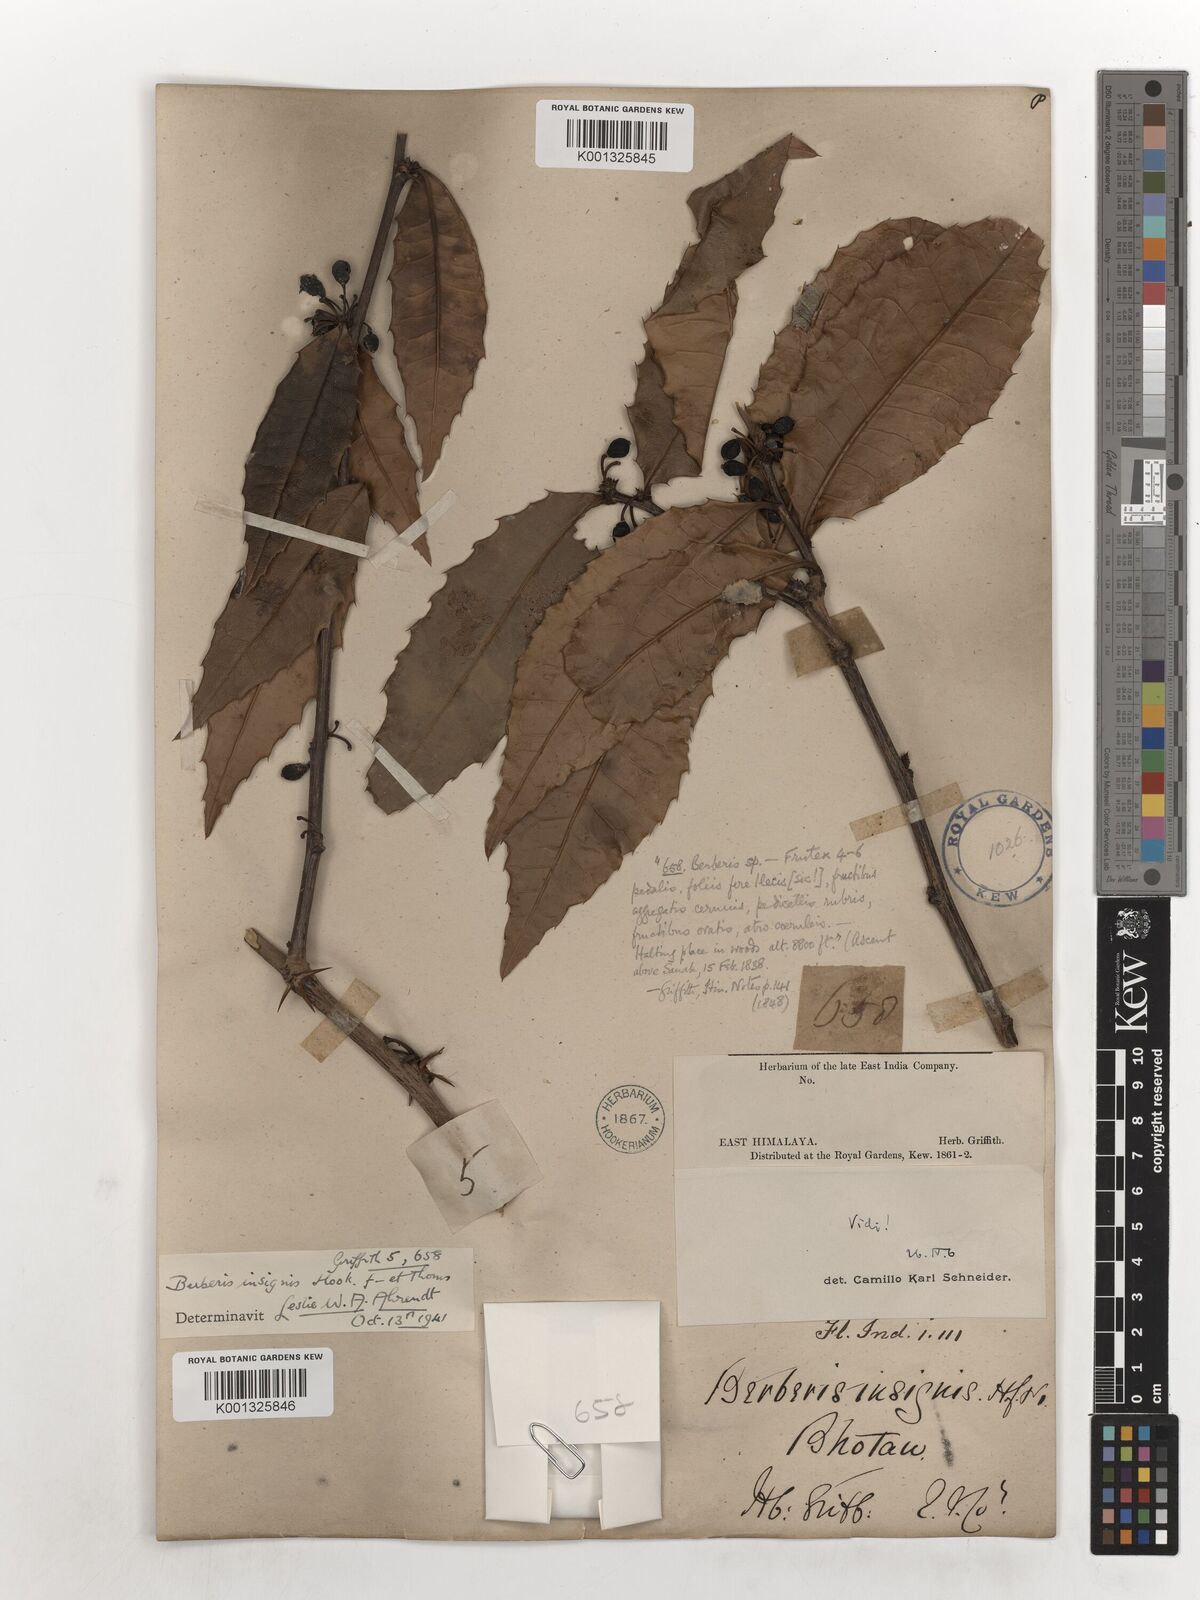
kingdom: Plantae
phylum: Tracheophyta
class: Magnoliopsida
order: Ranunculales
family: Berberidaceae
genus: Berberis
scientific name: Berberis insignis
